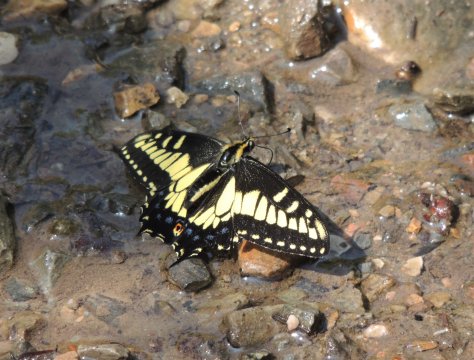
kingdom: Animalia
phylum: Arthropoda
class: Insecta
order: Lepidoptera
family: Papilionidae
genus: Papilio
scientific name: Papilio zelicaon
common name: Anise Swallowtail
